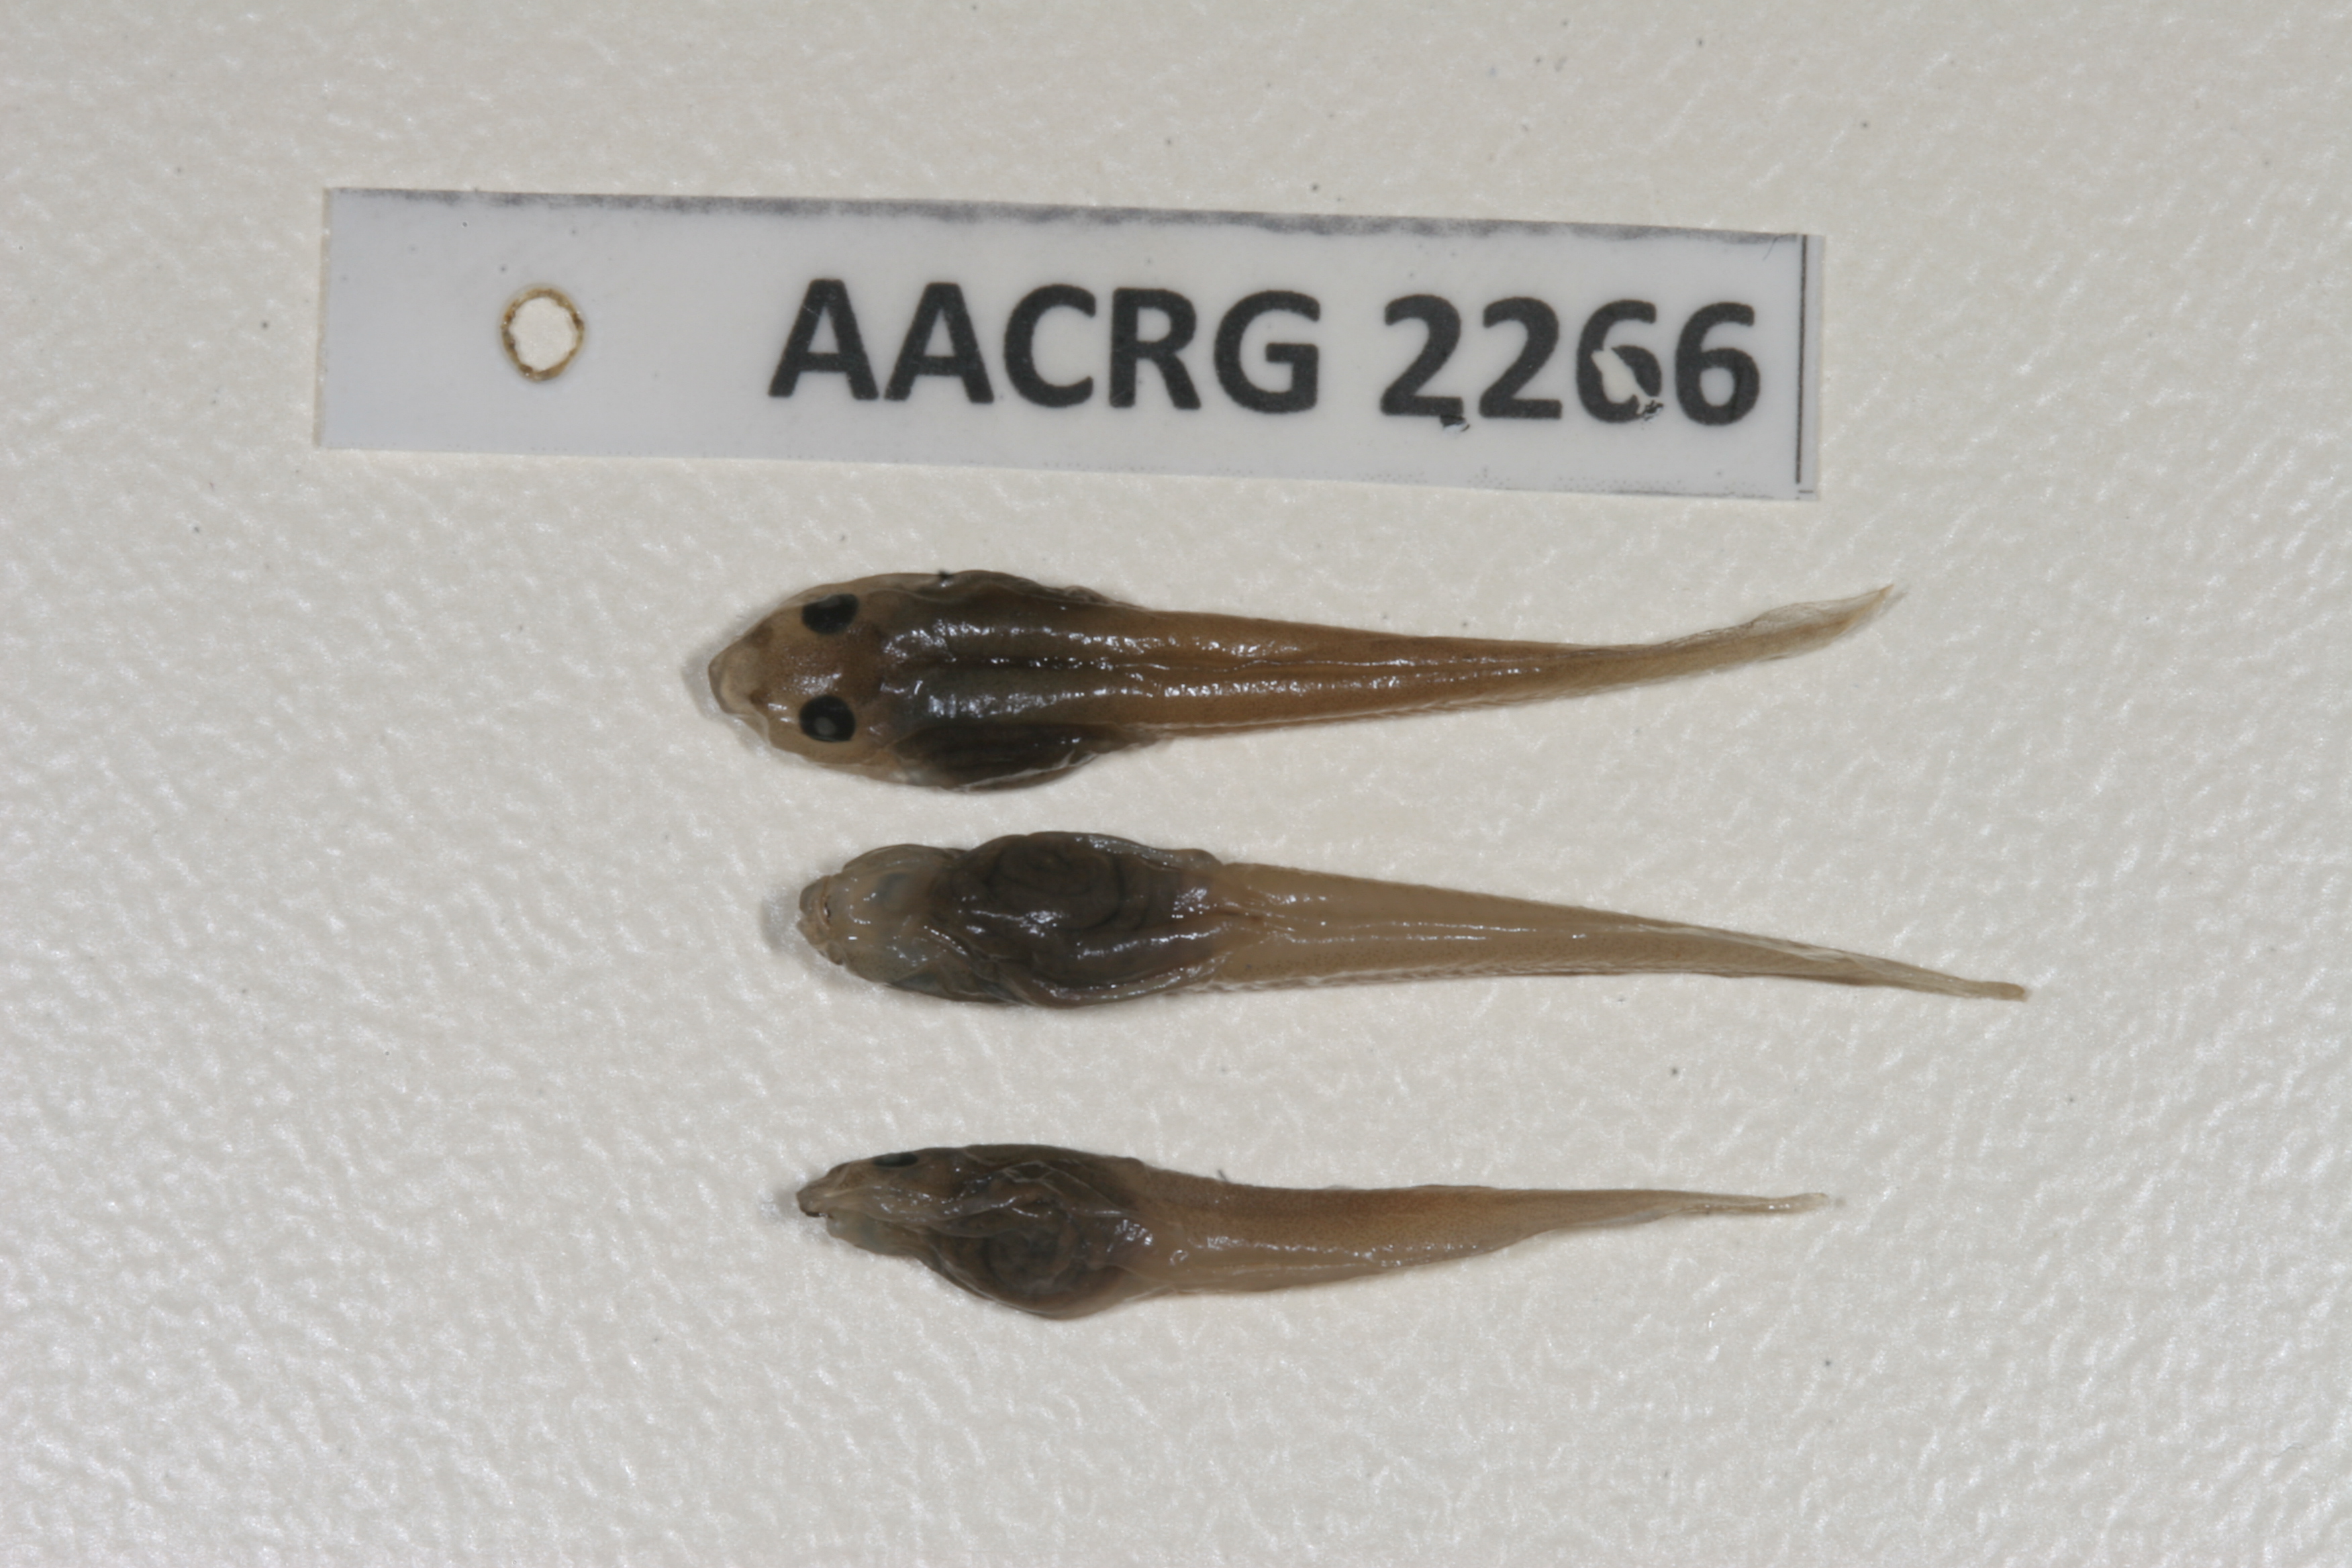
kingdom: Animalia
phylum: Chordata
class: Amphibia
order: Anura
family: Pyxicephalidae
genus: Natalobatrachus
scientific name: Natalobatrachus bonebergi
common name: Natal diving frog
